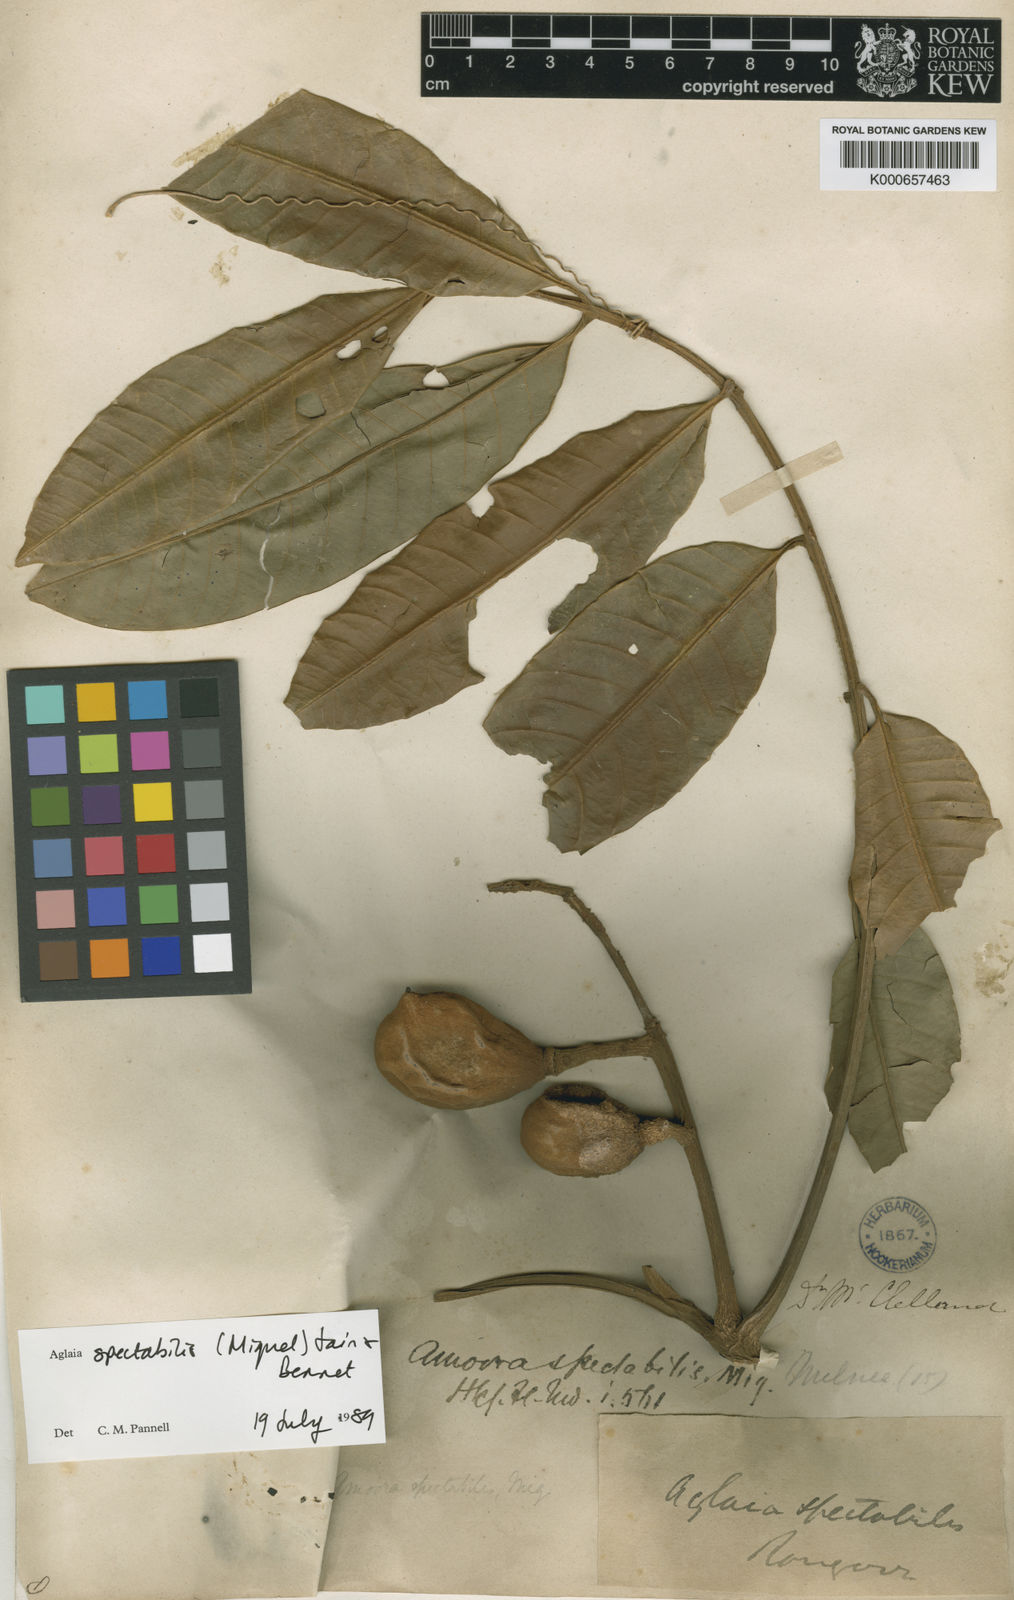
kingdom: Plantae
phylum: Tracheophyta
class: Magnoliopsida
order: Sapindales
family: Meliaceae
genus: Aglaia
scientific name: Aglaia spectabilis
